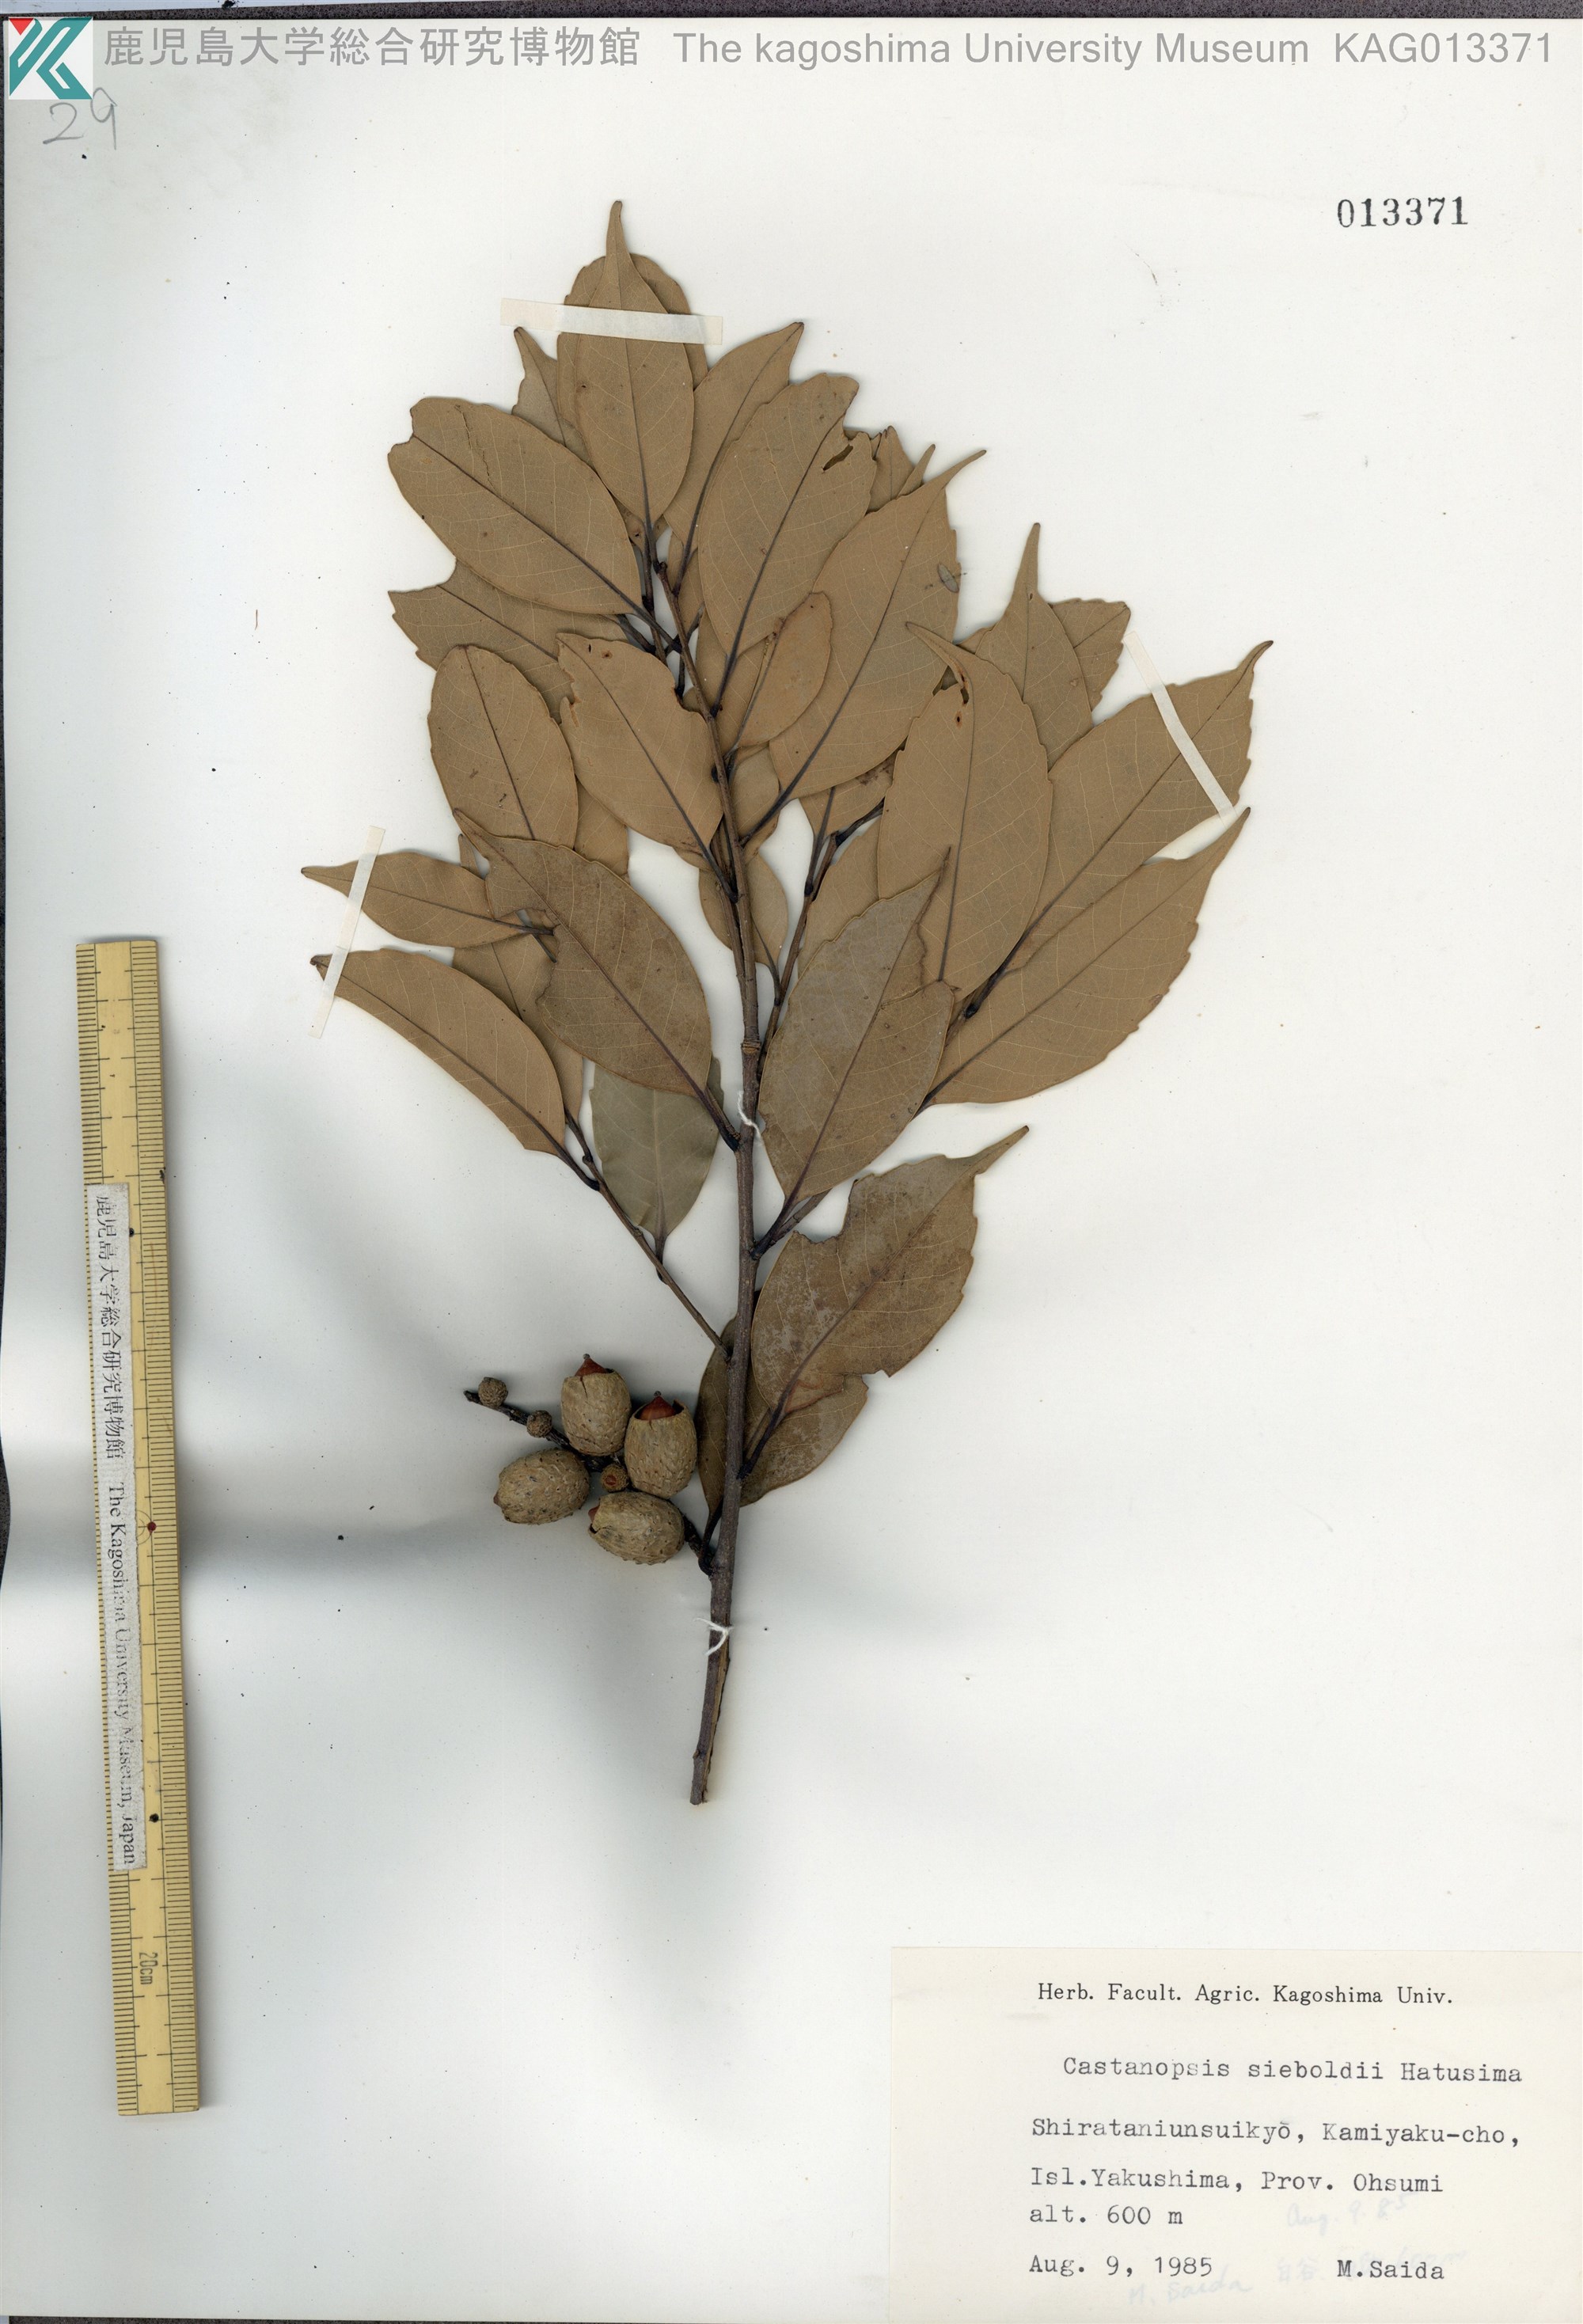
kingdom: Plantae
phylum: Tracheophyta
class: Magnoliopsida
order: Fagales
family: Fagaceae
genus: Castanopsis
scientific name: Castanopsis sieboldii
